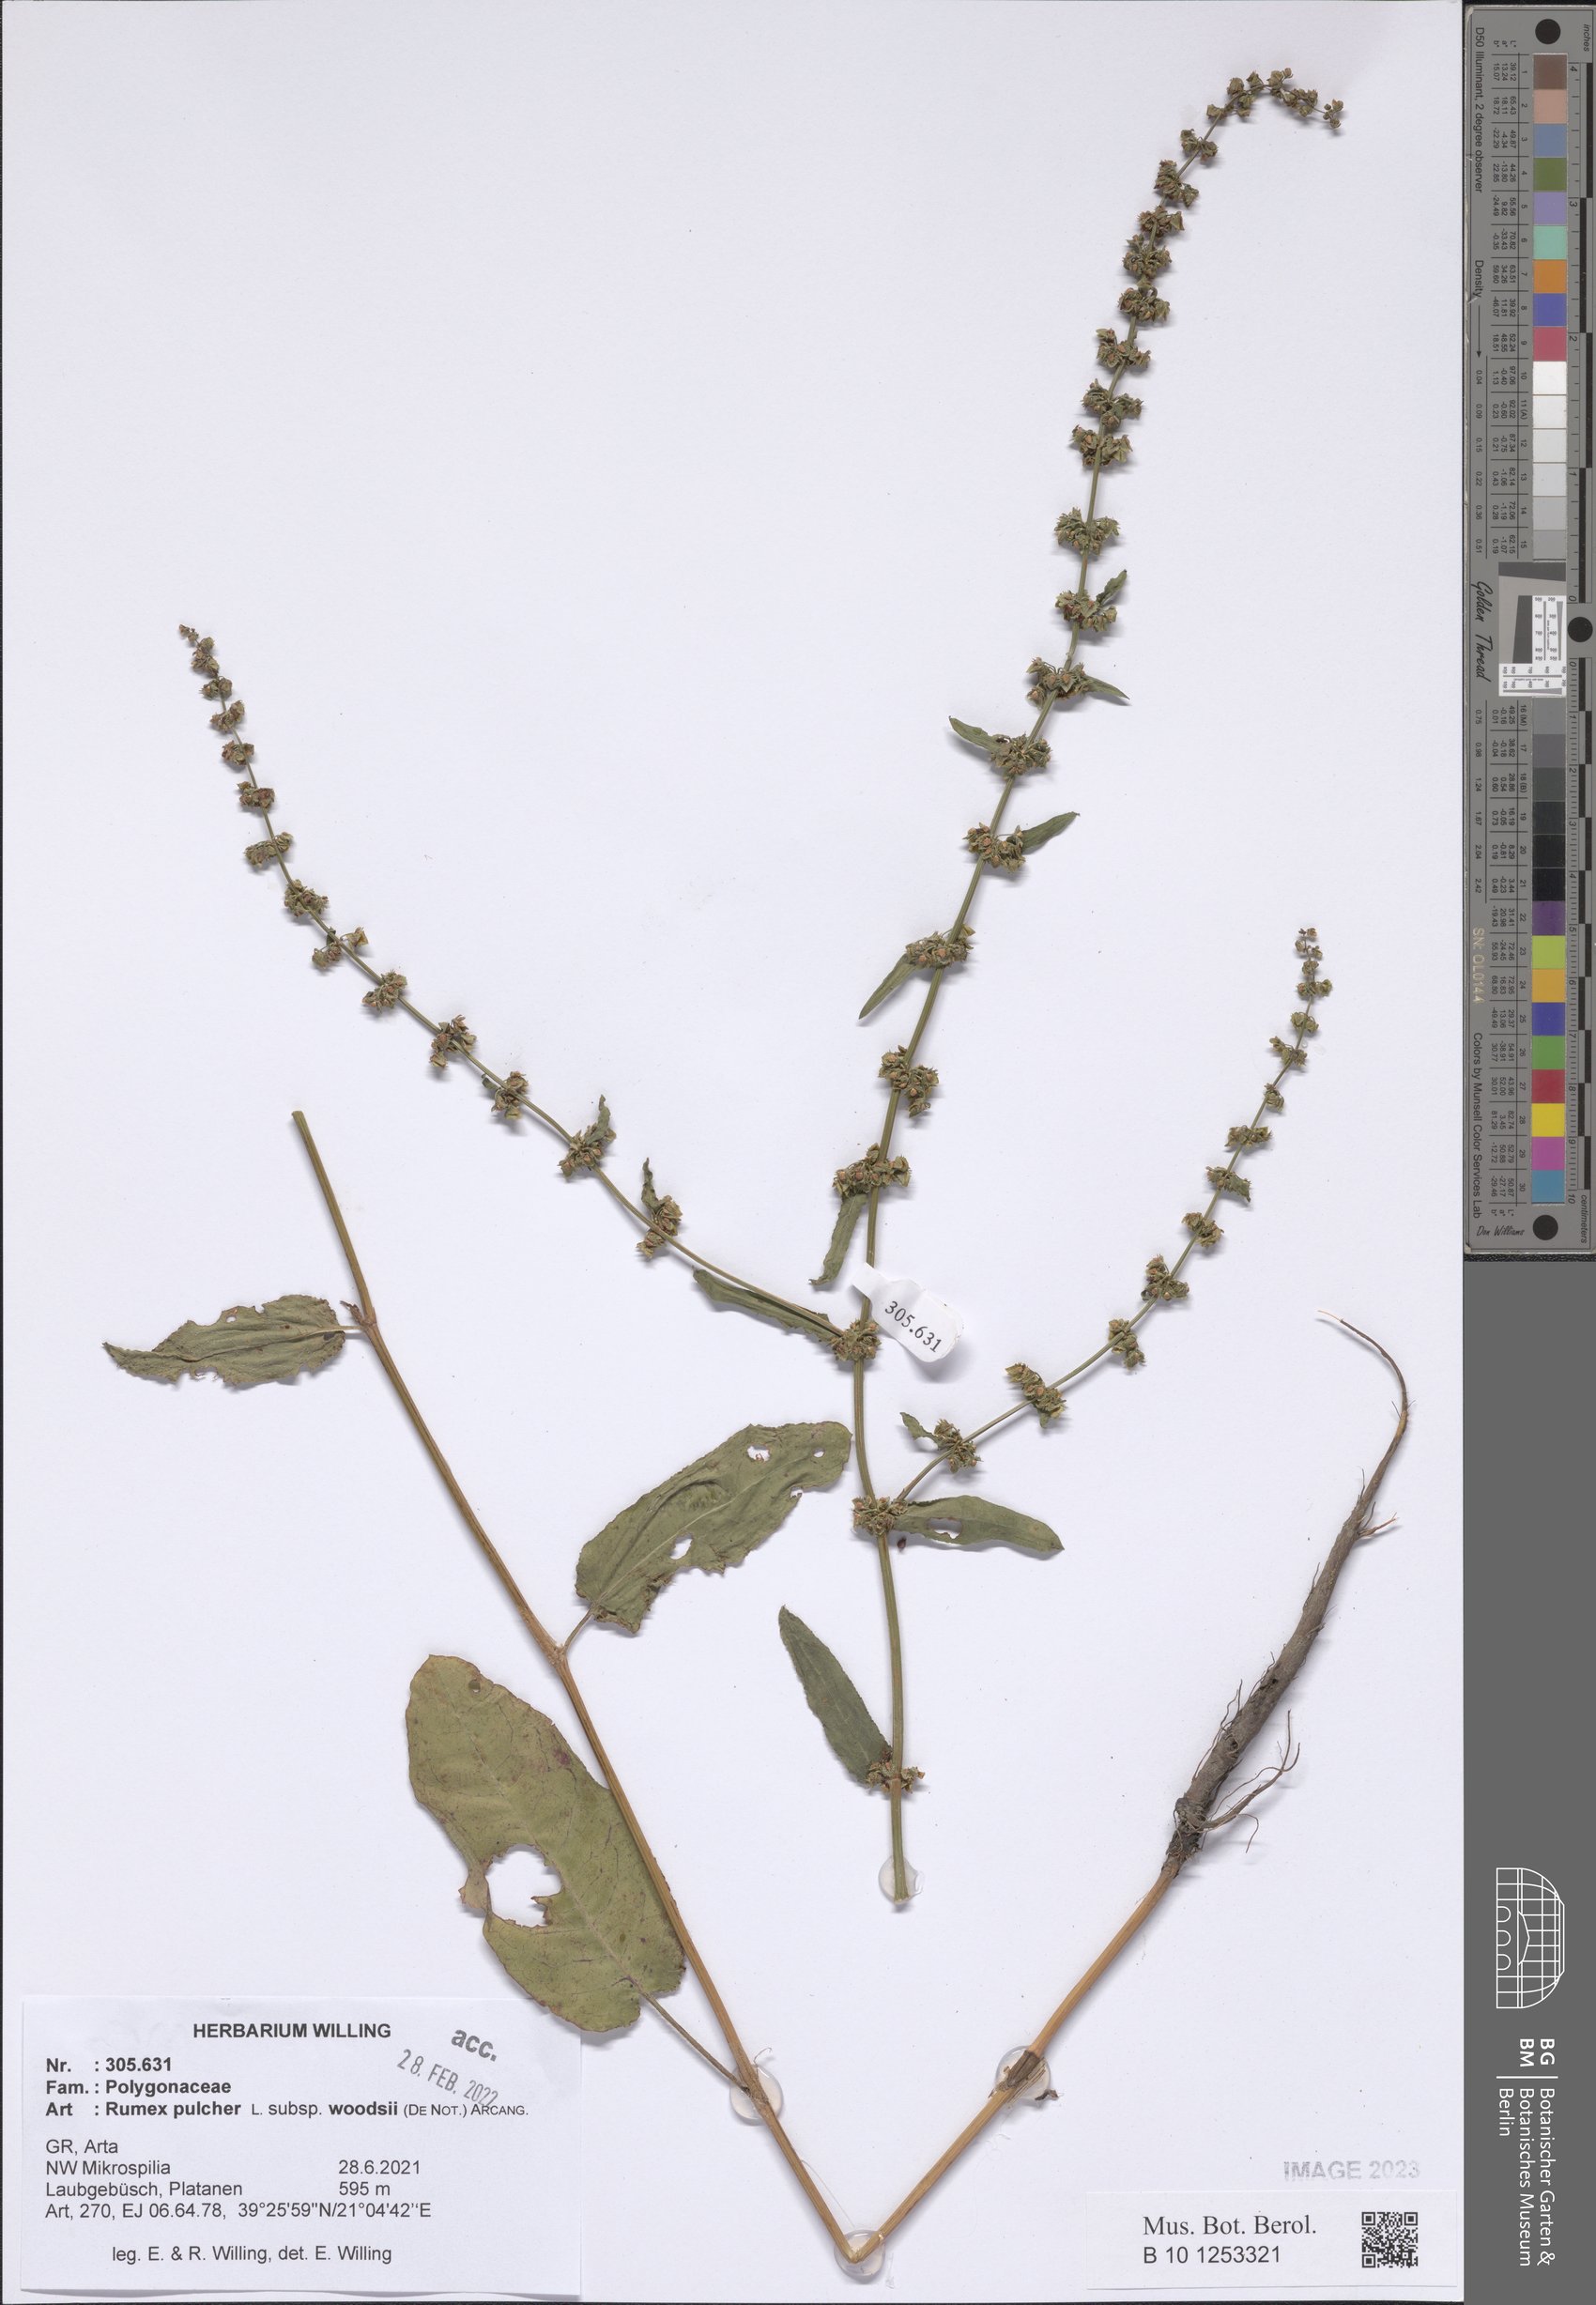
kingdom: Plantae
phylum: Tracheophyta
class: Magnoliopsida
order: Caryophyllales
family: Polygonaceae
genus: Rumex
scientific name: Rumex pulcher
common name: Fiddle dock
